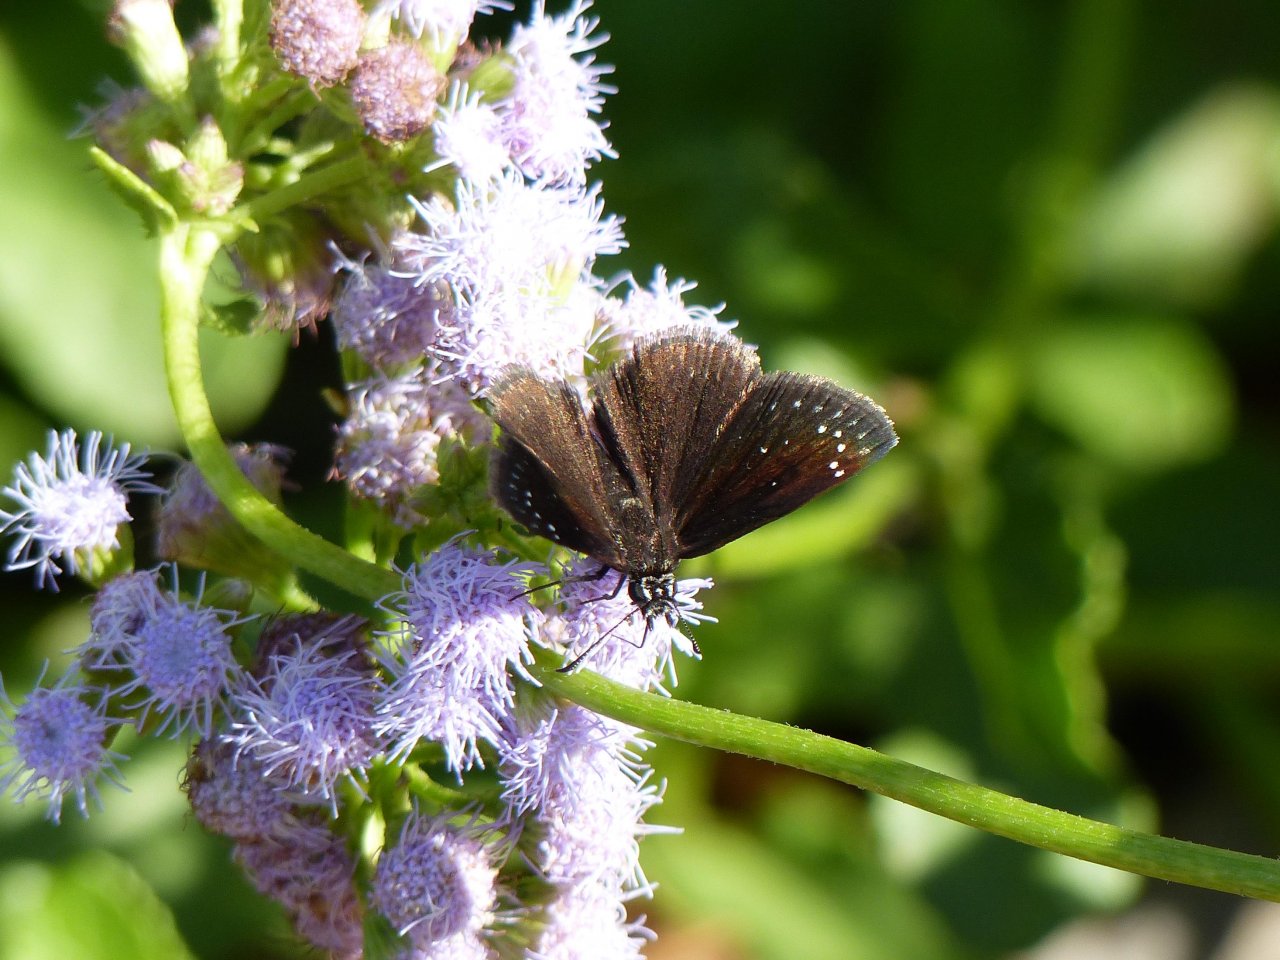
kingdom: Animalia
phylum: Arthropoda
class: Insecta
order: Lepidoptera
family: Hesperiidae
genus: Pholisora
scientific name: Pholisora catullus
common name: Common Sootywing
